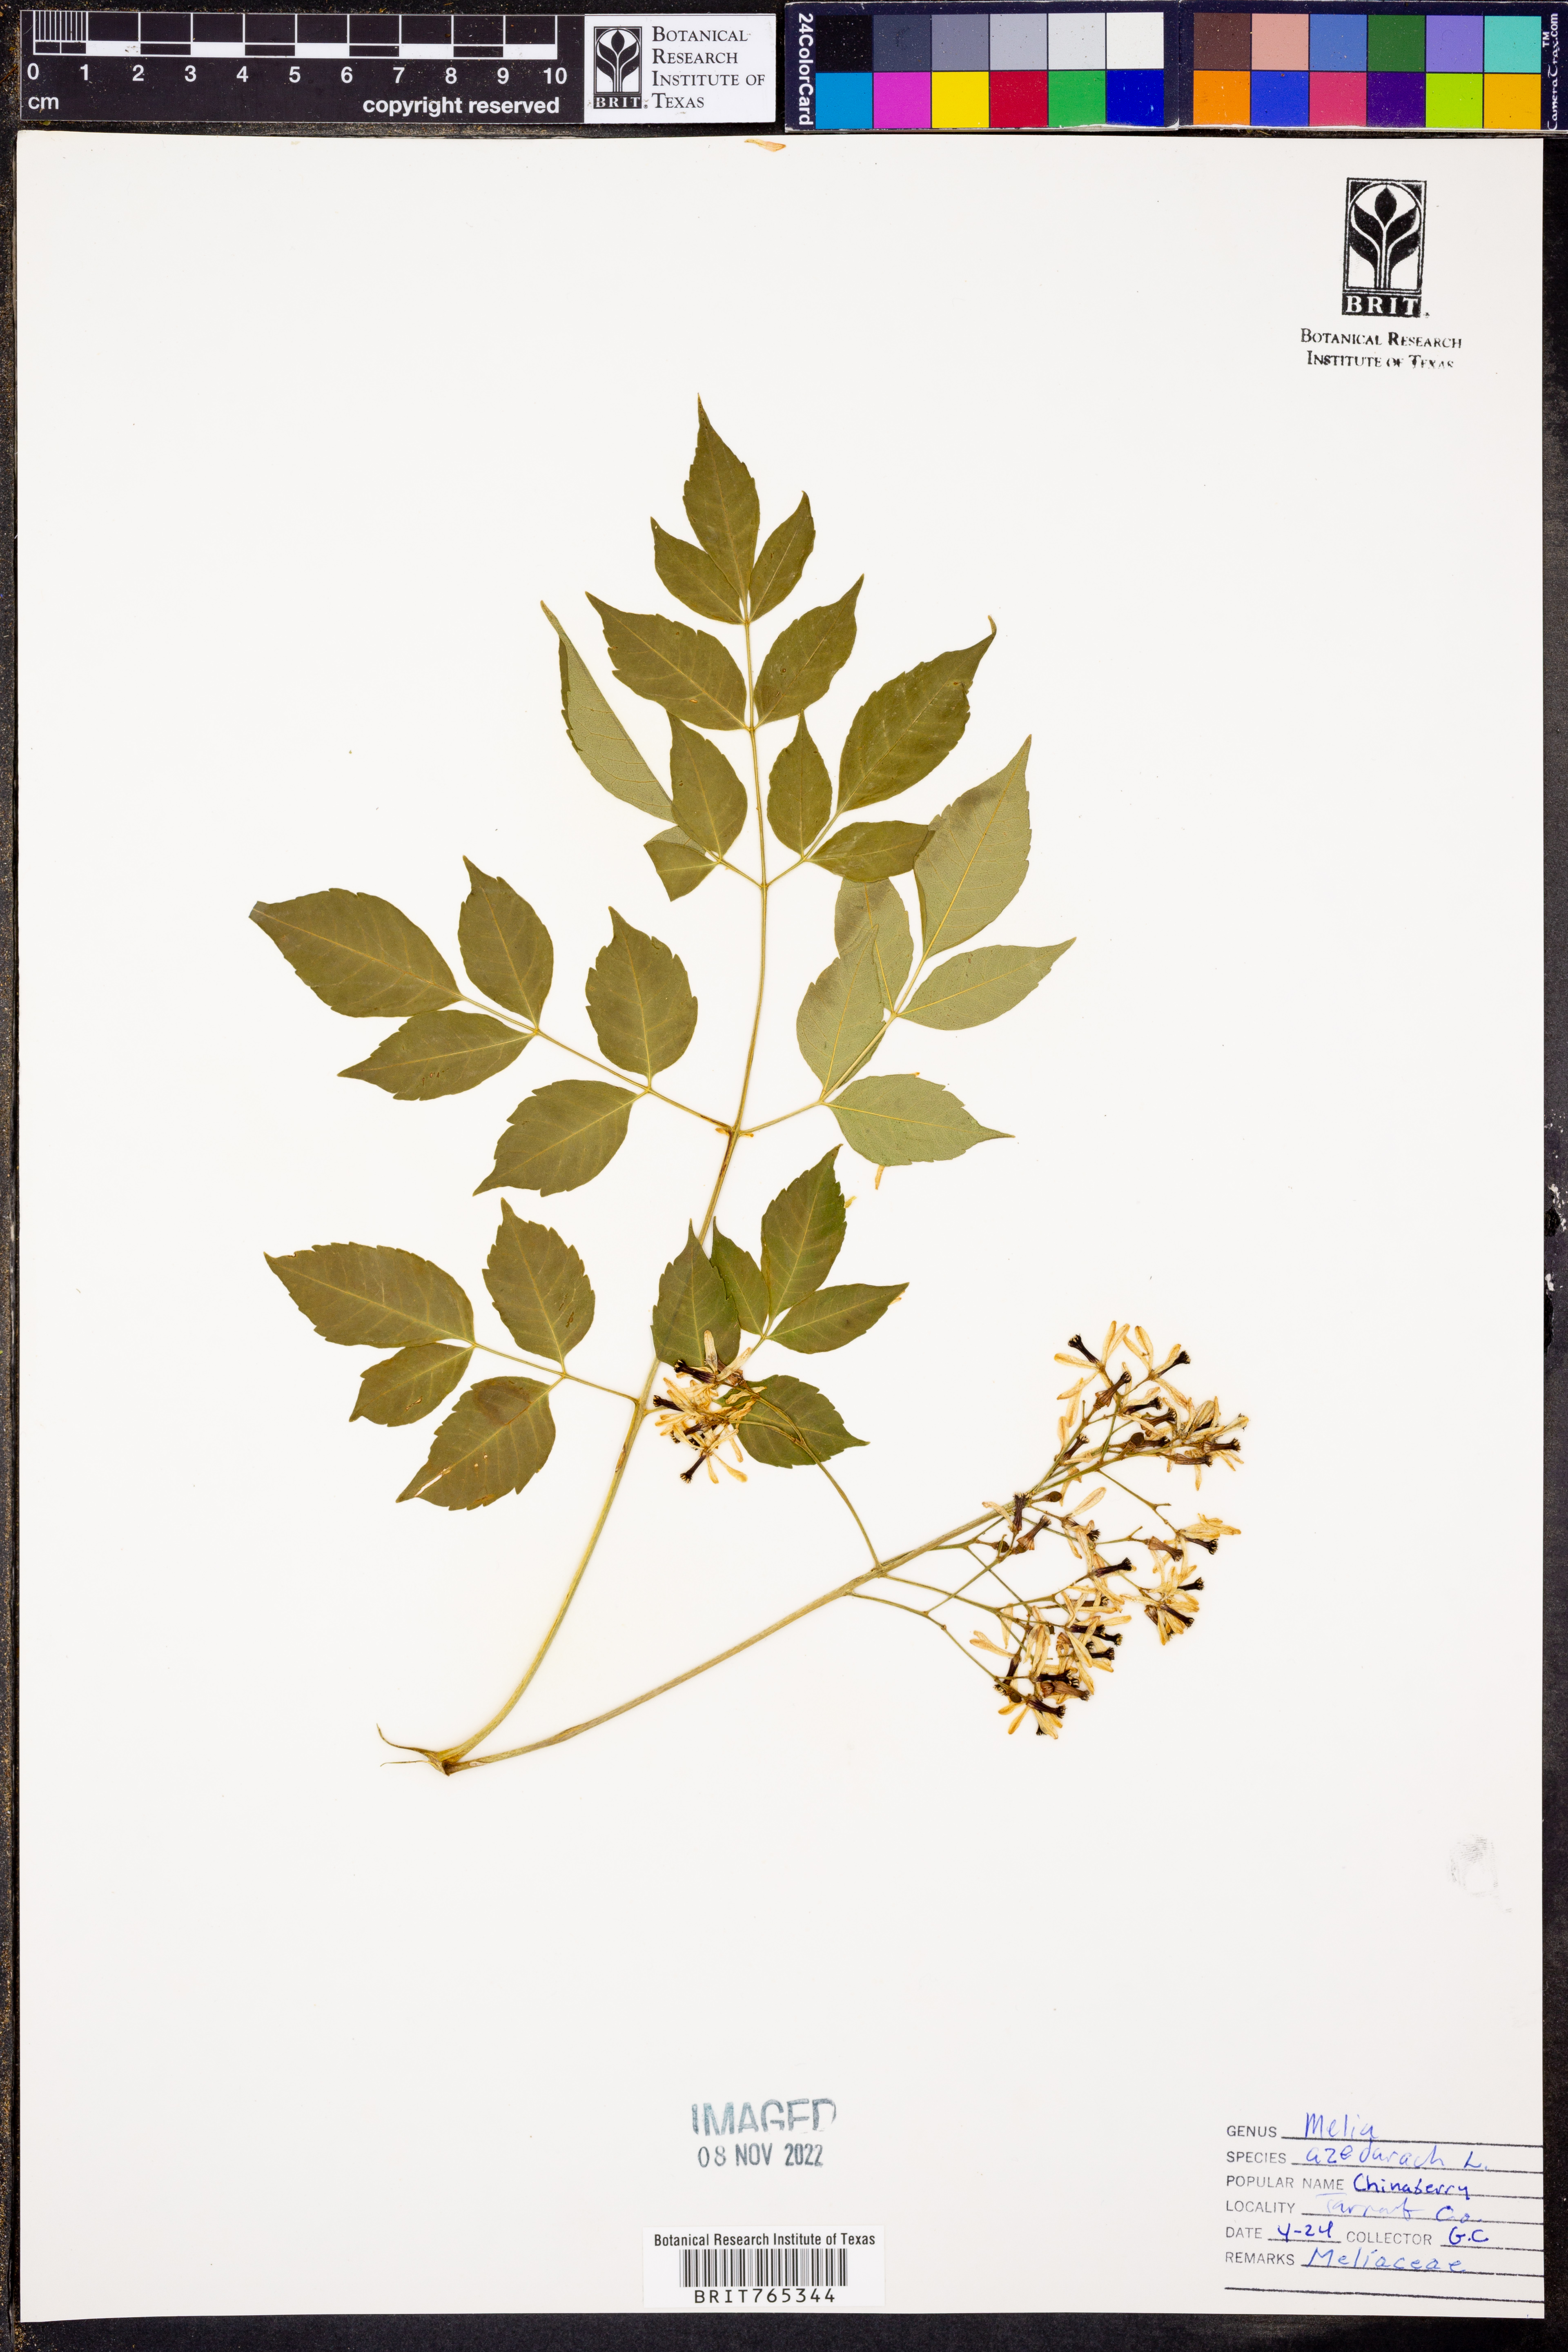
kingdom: Plantae
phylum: Tracheophyta
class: Magnoliopsida
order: Sapindales
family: Meliaceae
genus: Melia
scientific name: Melia azedarach
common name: Chinaberrytree
